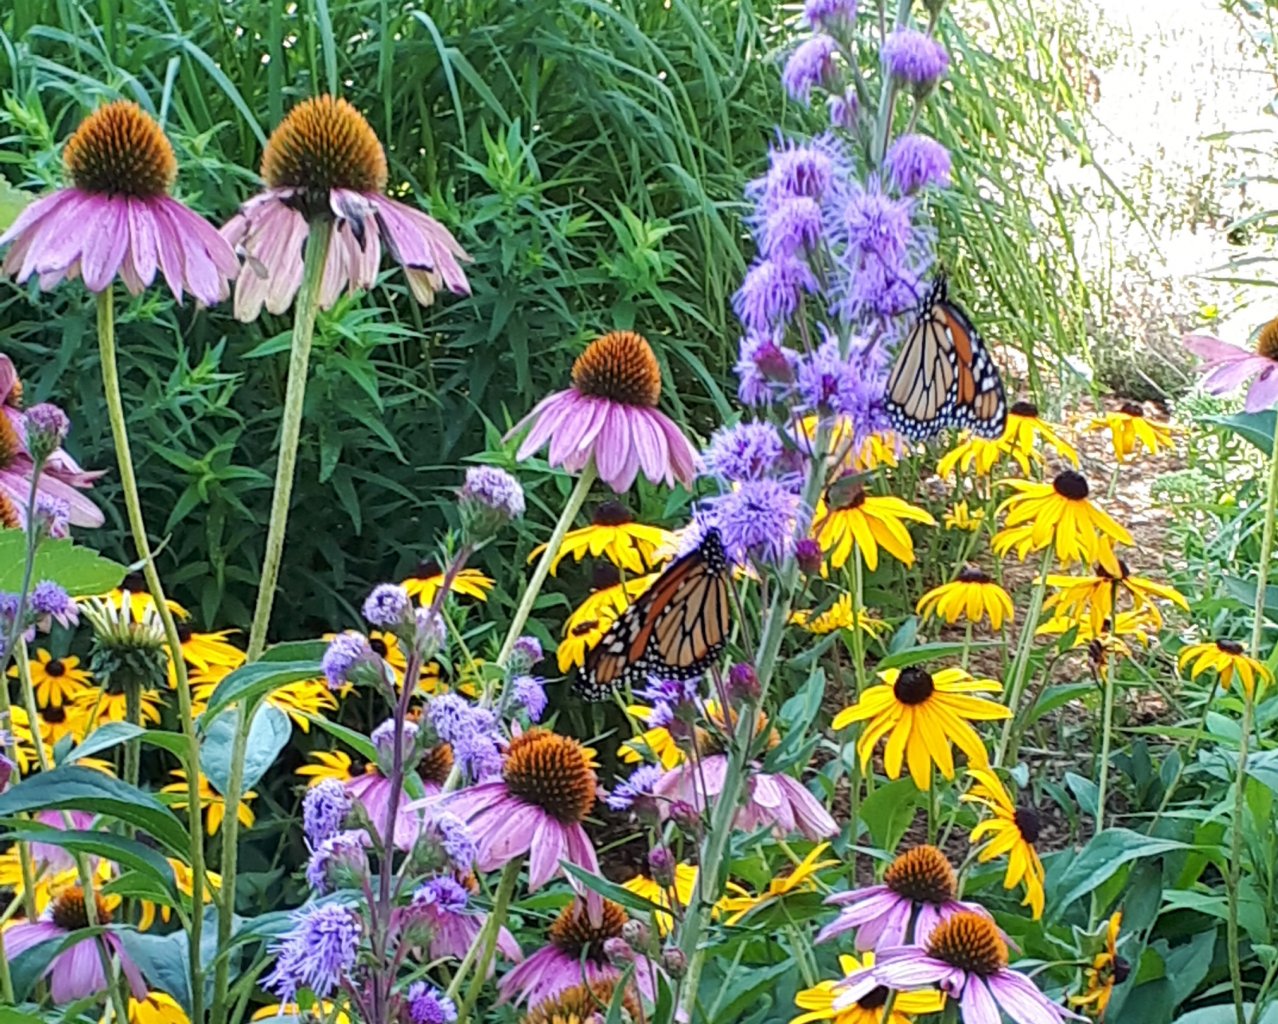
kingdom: Animalia
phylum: Arthropoda
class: Insecta
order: Lepidoptera
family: Nymphalidae
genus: Danaus
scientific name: Danaus plexippus
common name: Monarch
